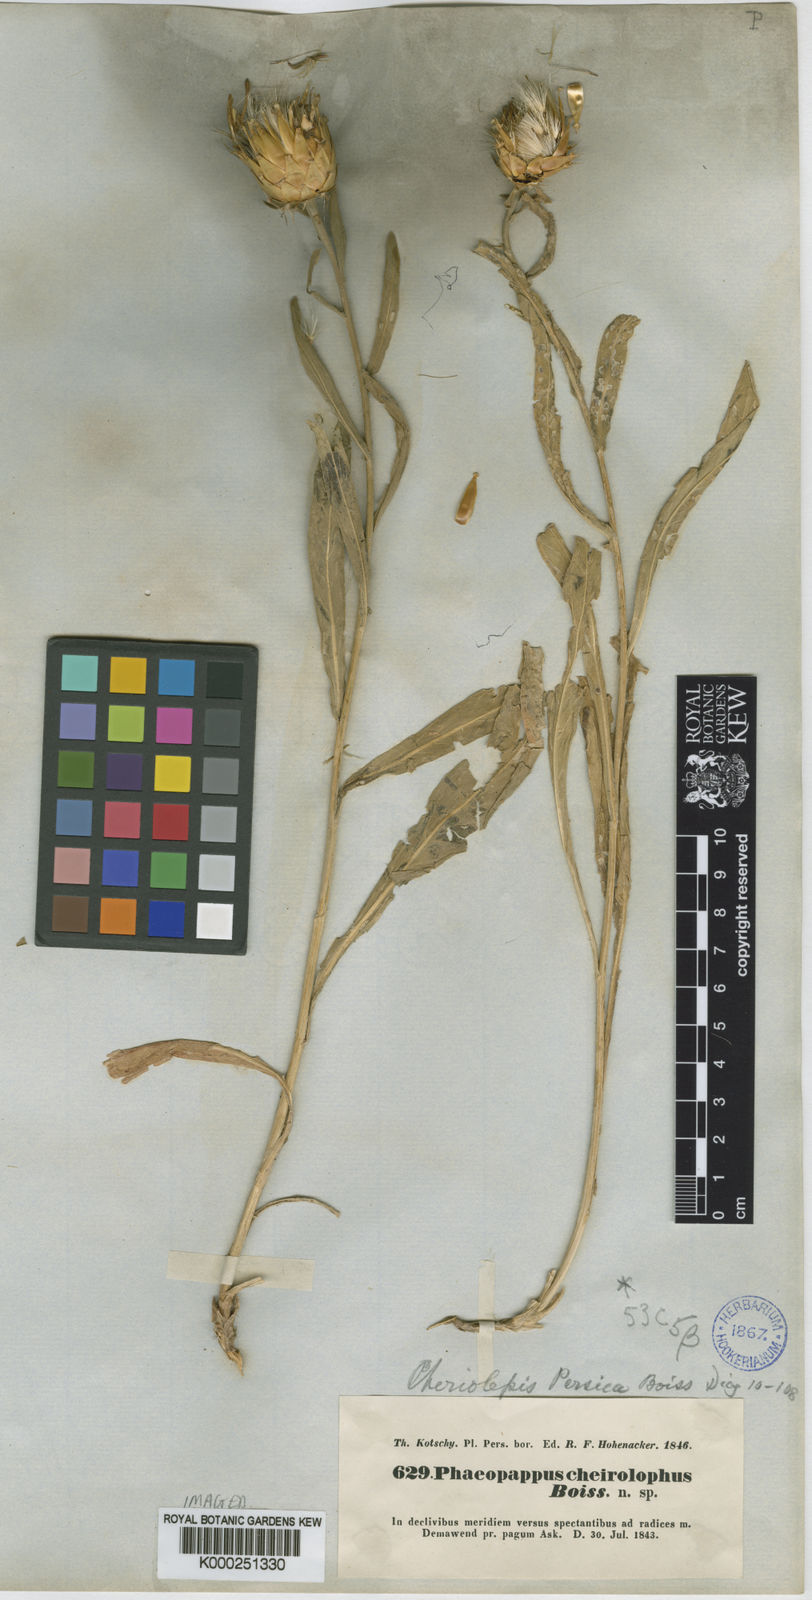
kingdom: Plantae
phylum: Tracheophyta
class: Magnoliopsida
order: Asterales
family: Asteraceae
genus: Centaurea
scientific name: Centaurea kotschyi
